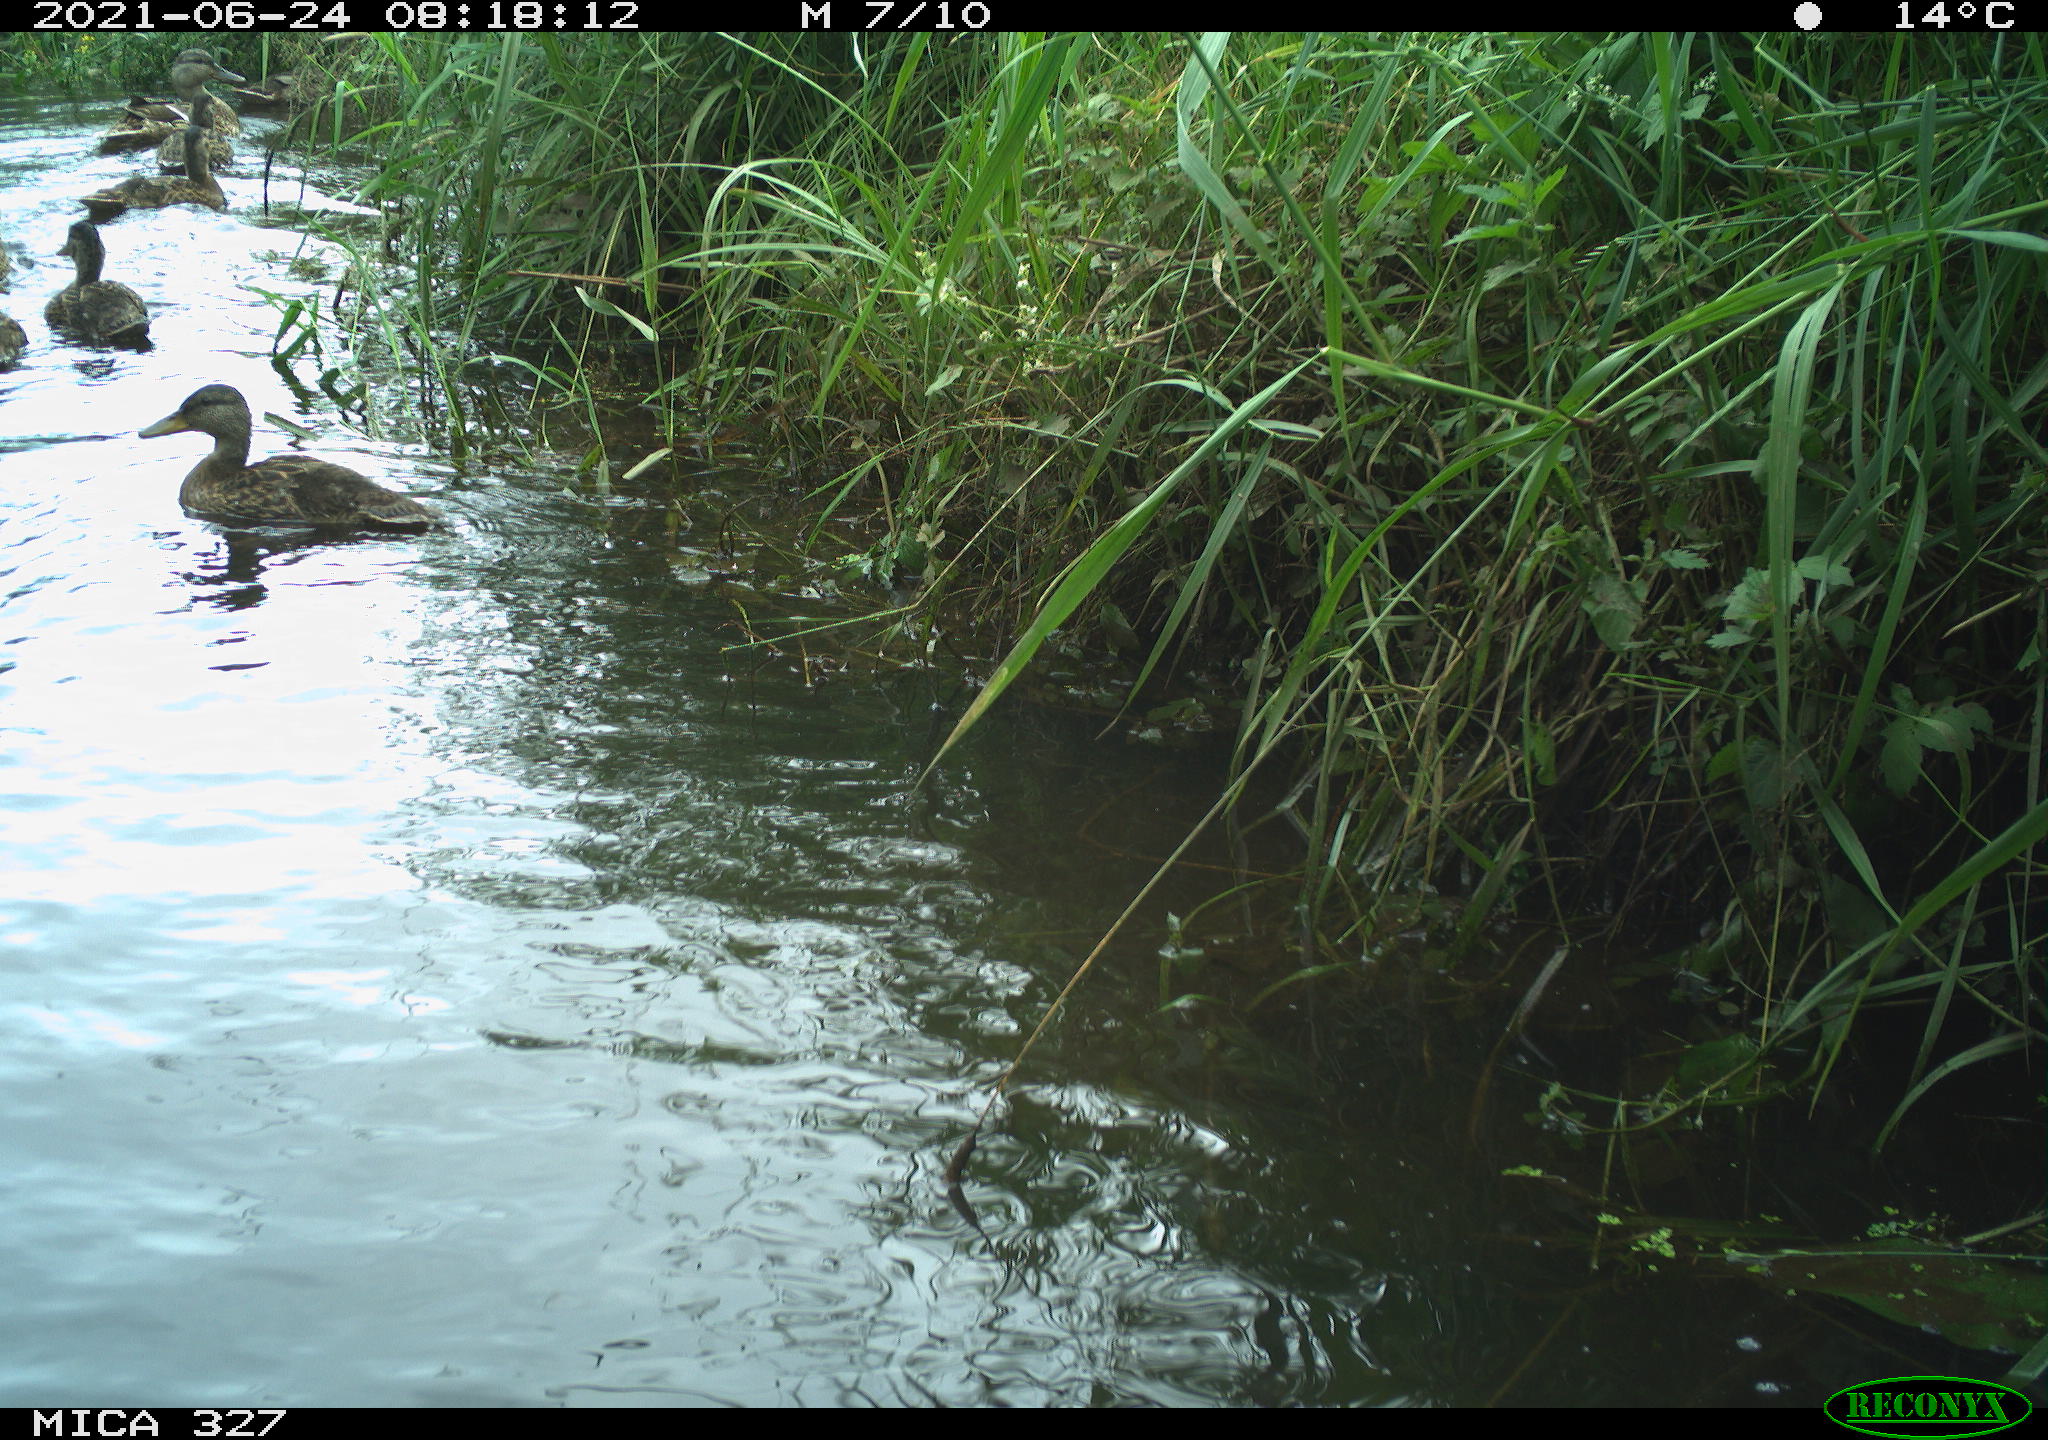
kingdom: Animalia
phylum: Chordata
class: Aves
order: Anseriformes
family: Anatidae
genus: Anas
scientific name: Anas platyrhynchos
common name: Mallard
